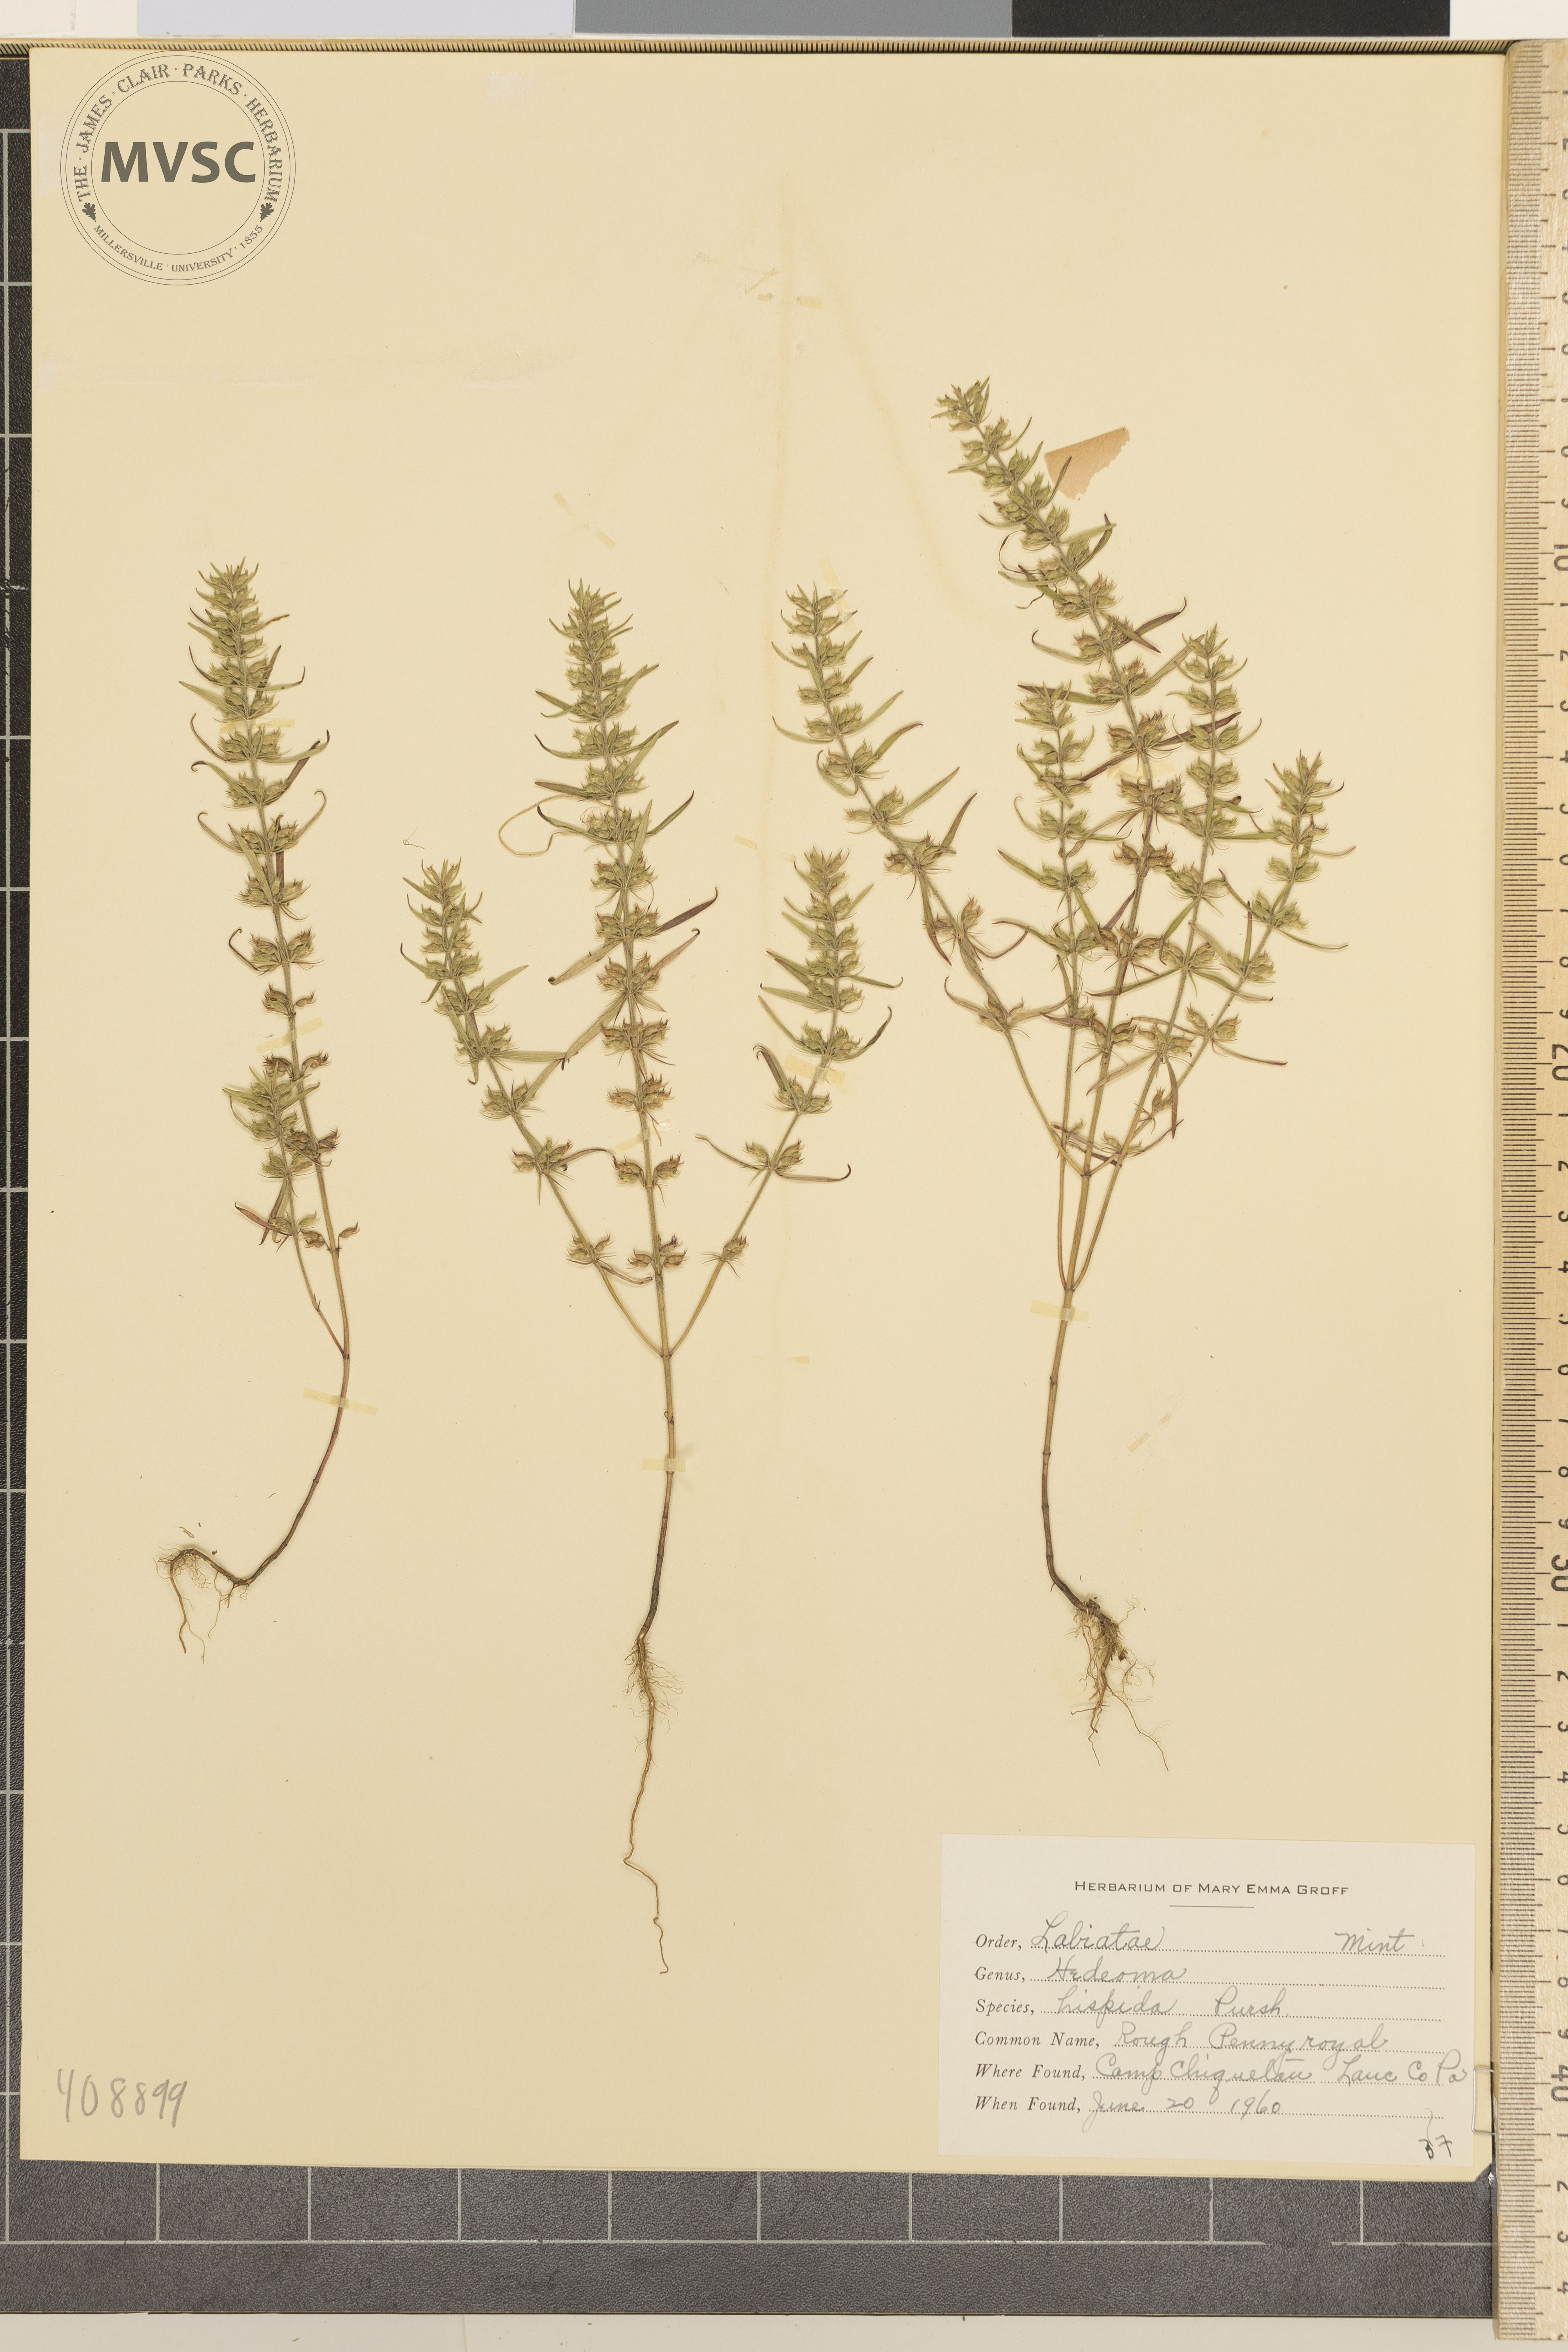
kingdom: Plantae
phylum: Tracheophyta
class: Magnoliopsida
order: Lamiales
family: Lamiaceae
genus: Hedeoma
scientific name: Hedeoma hispida
